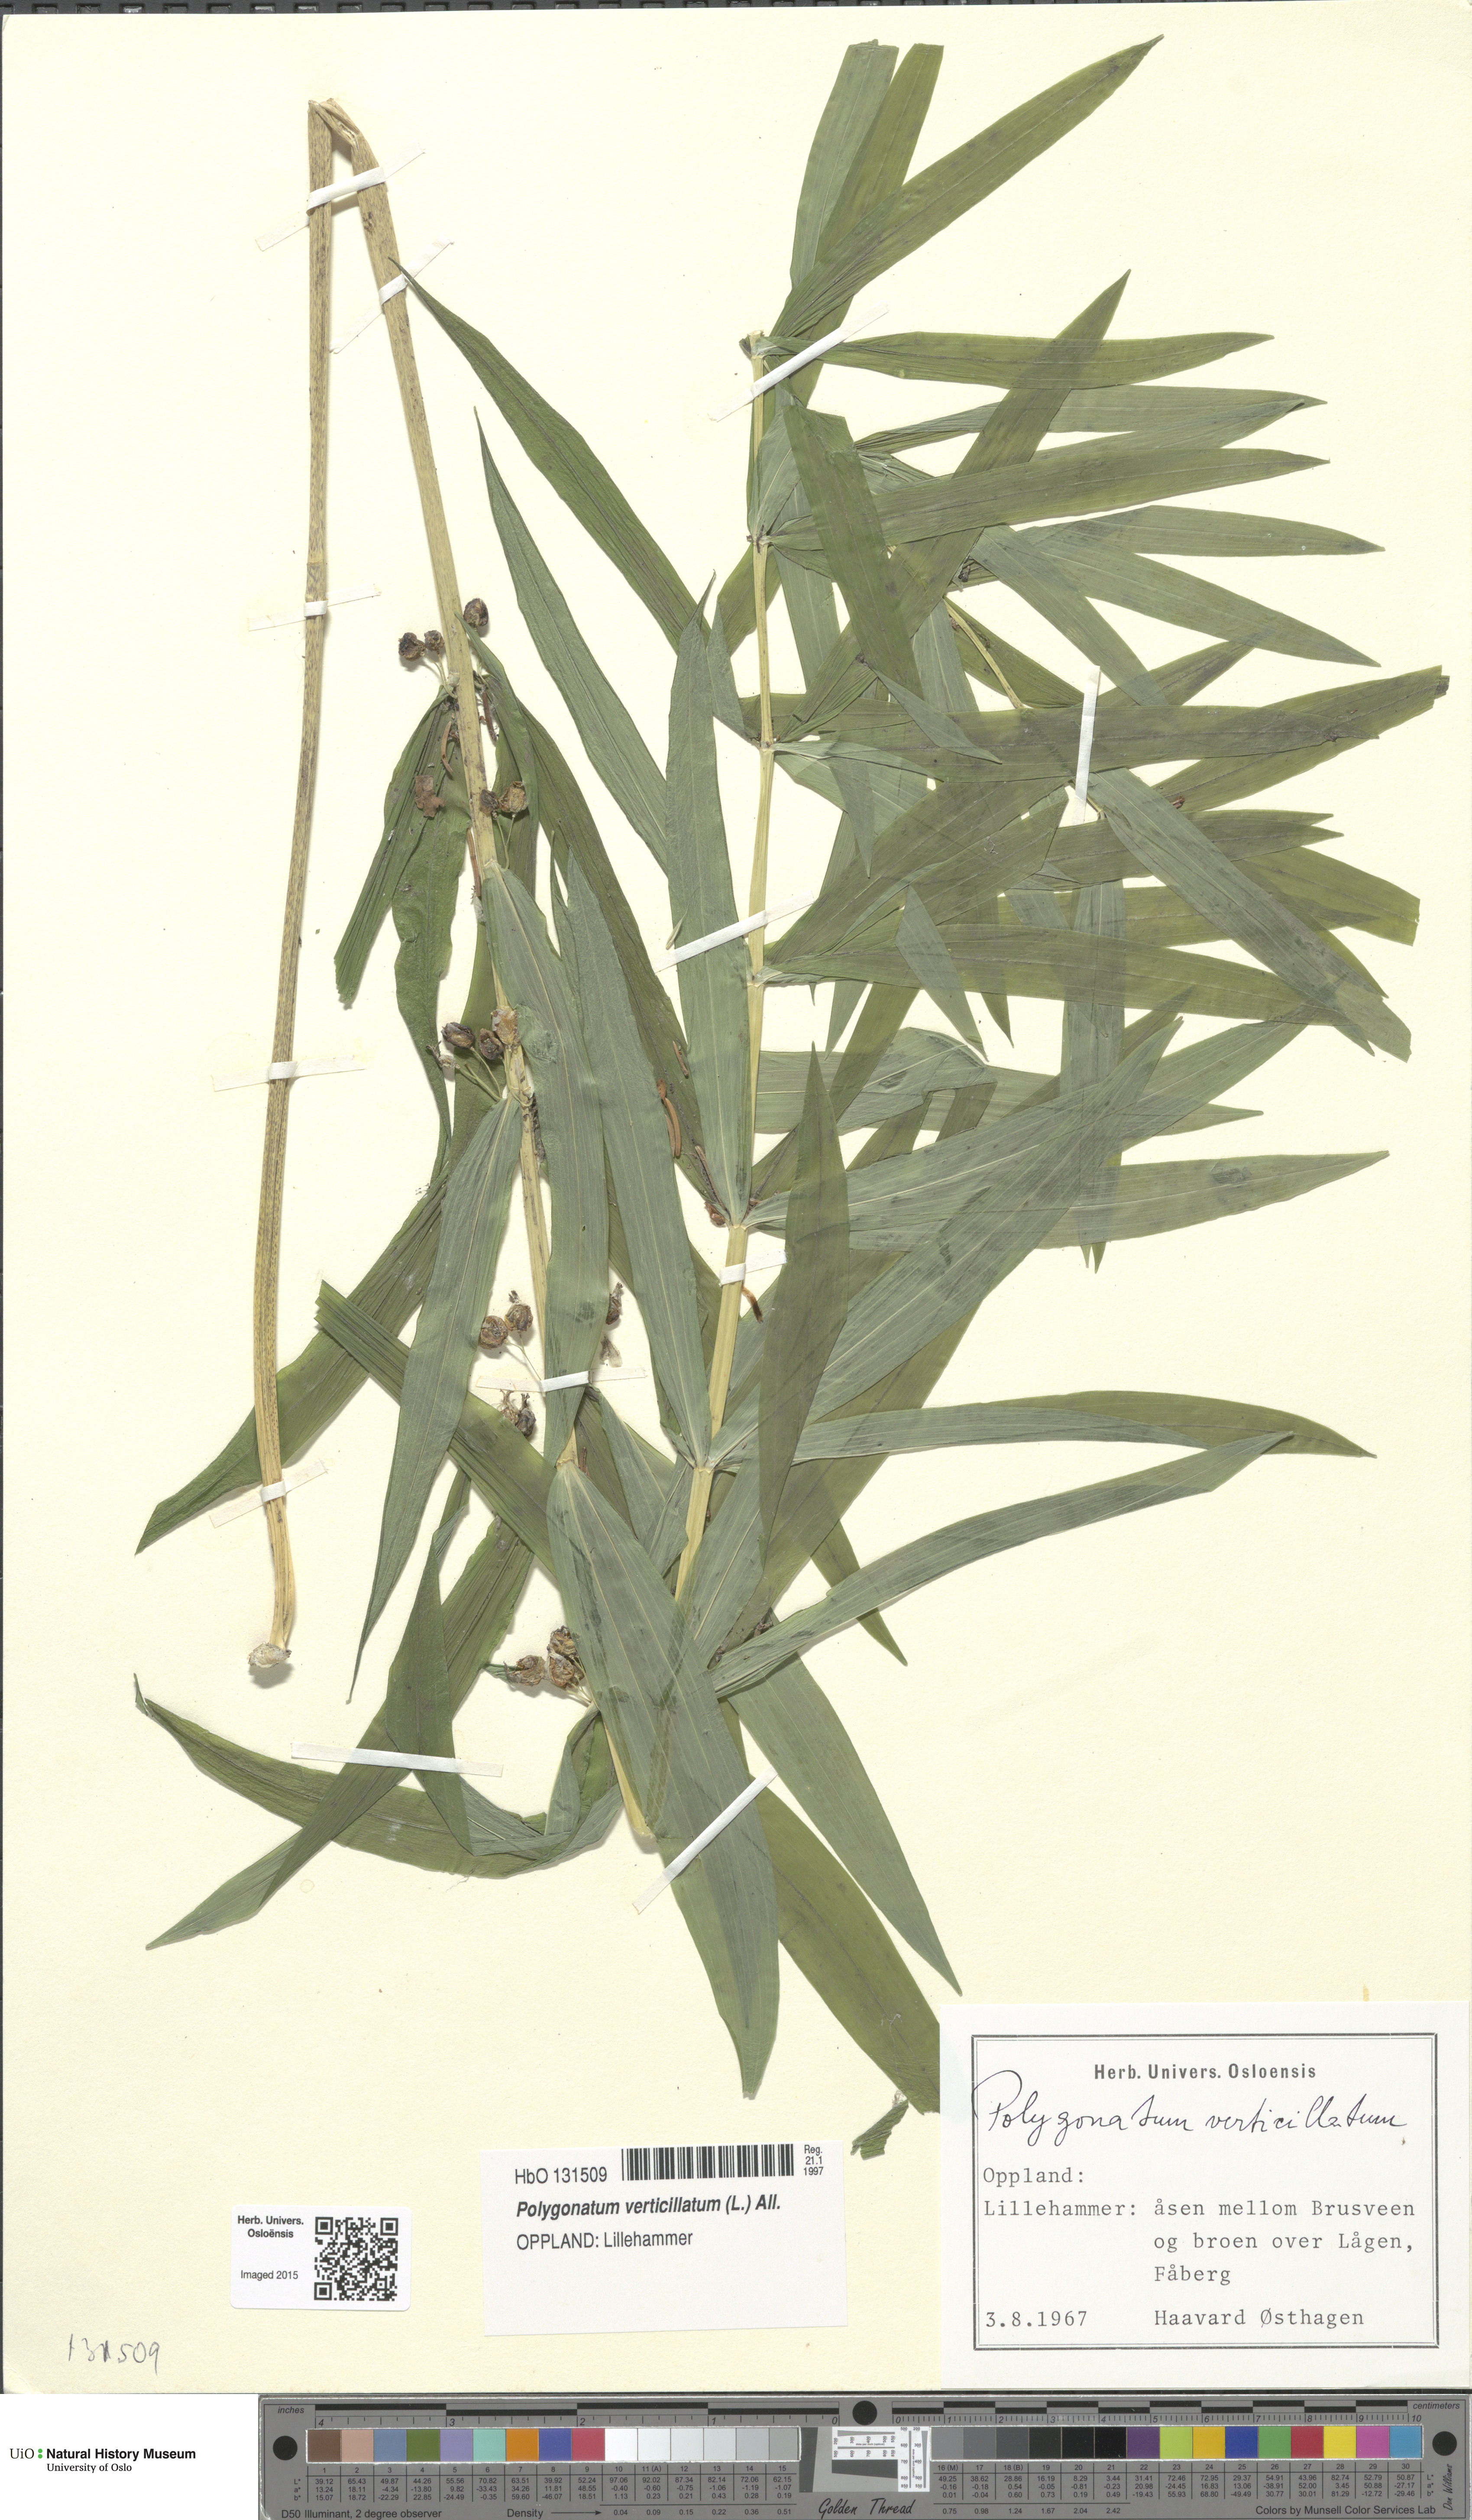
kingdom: Plantae
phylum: Tracheophyta
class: Liliopsida
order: Asparagales
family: Asparagaceae
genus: Polygonatum
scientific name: Polygonatum verticillatum
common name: Whorled solomon's-seal
